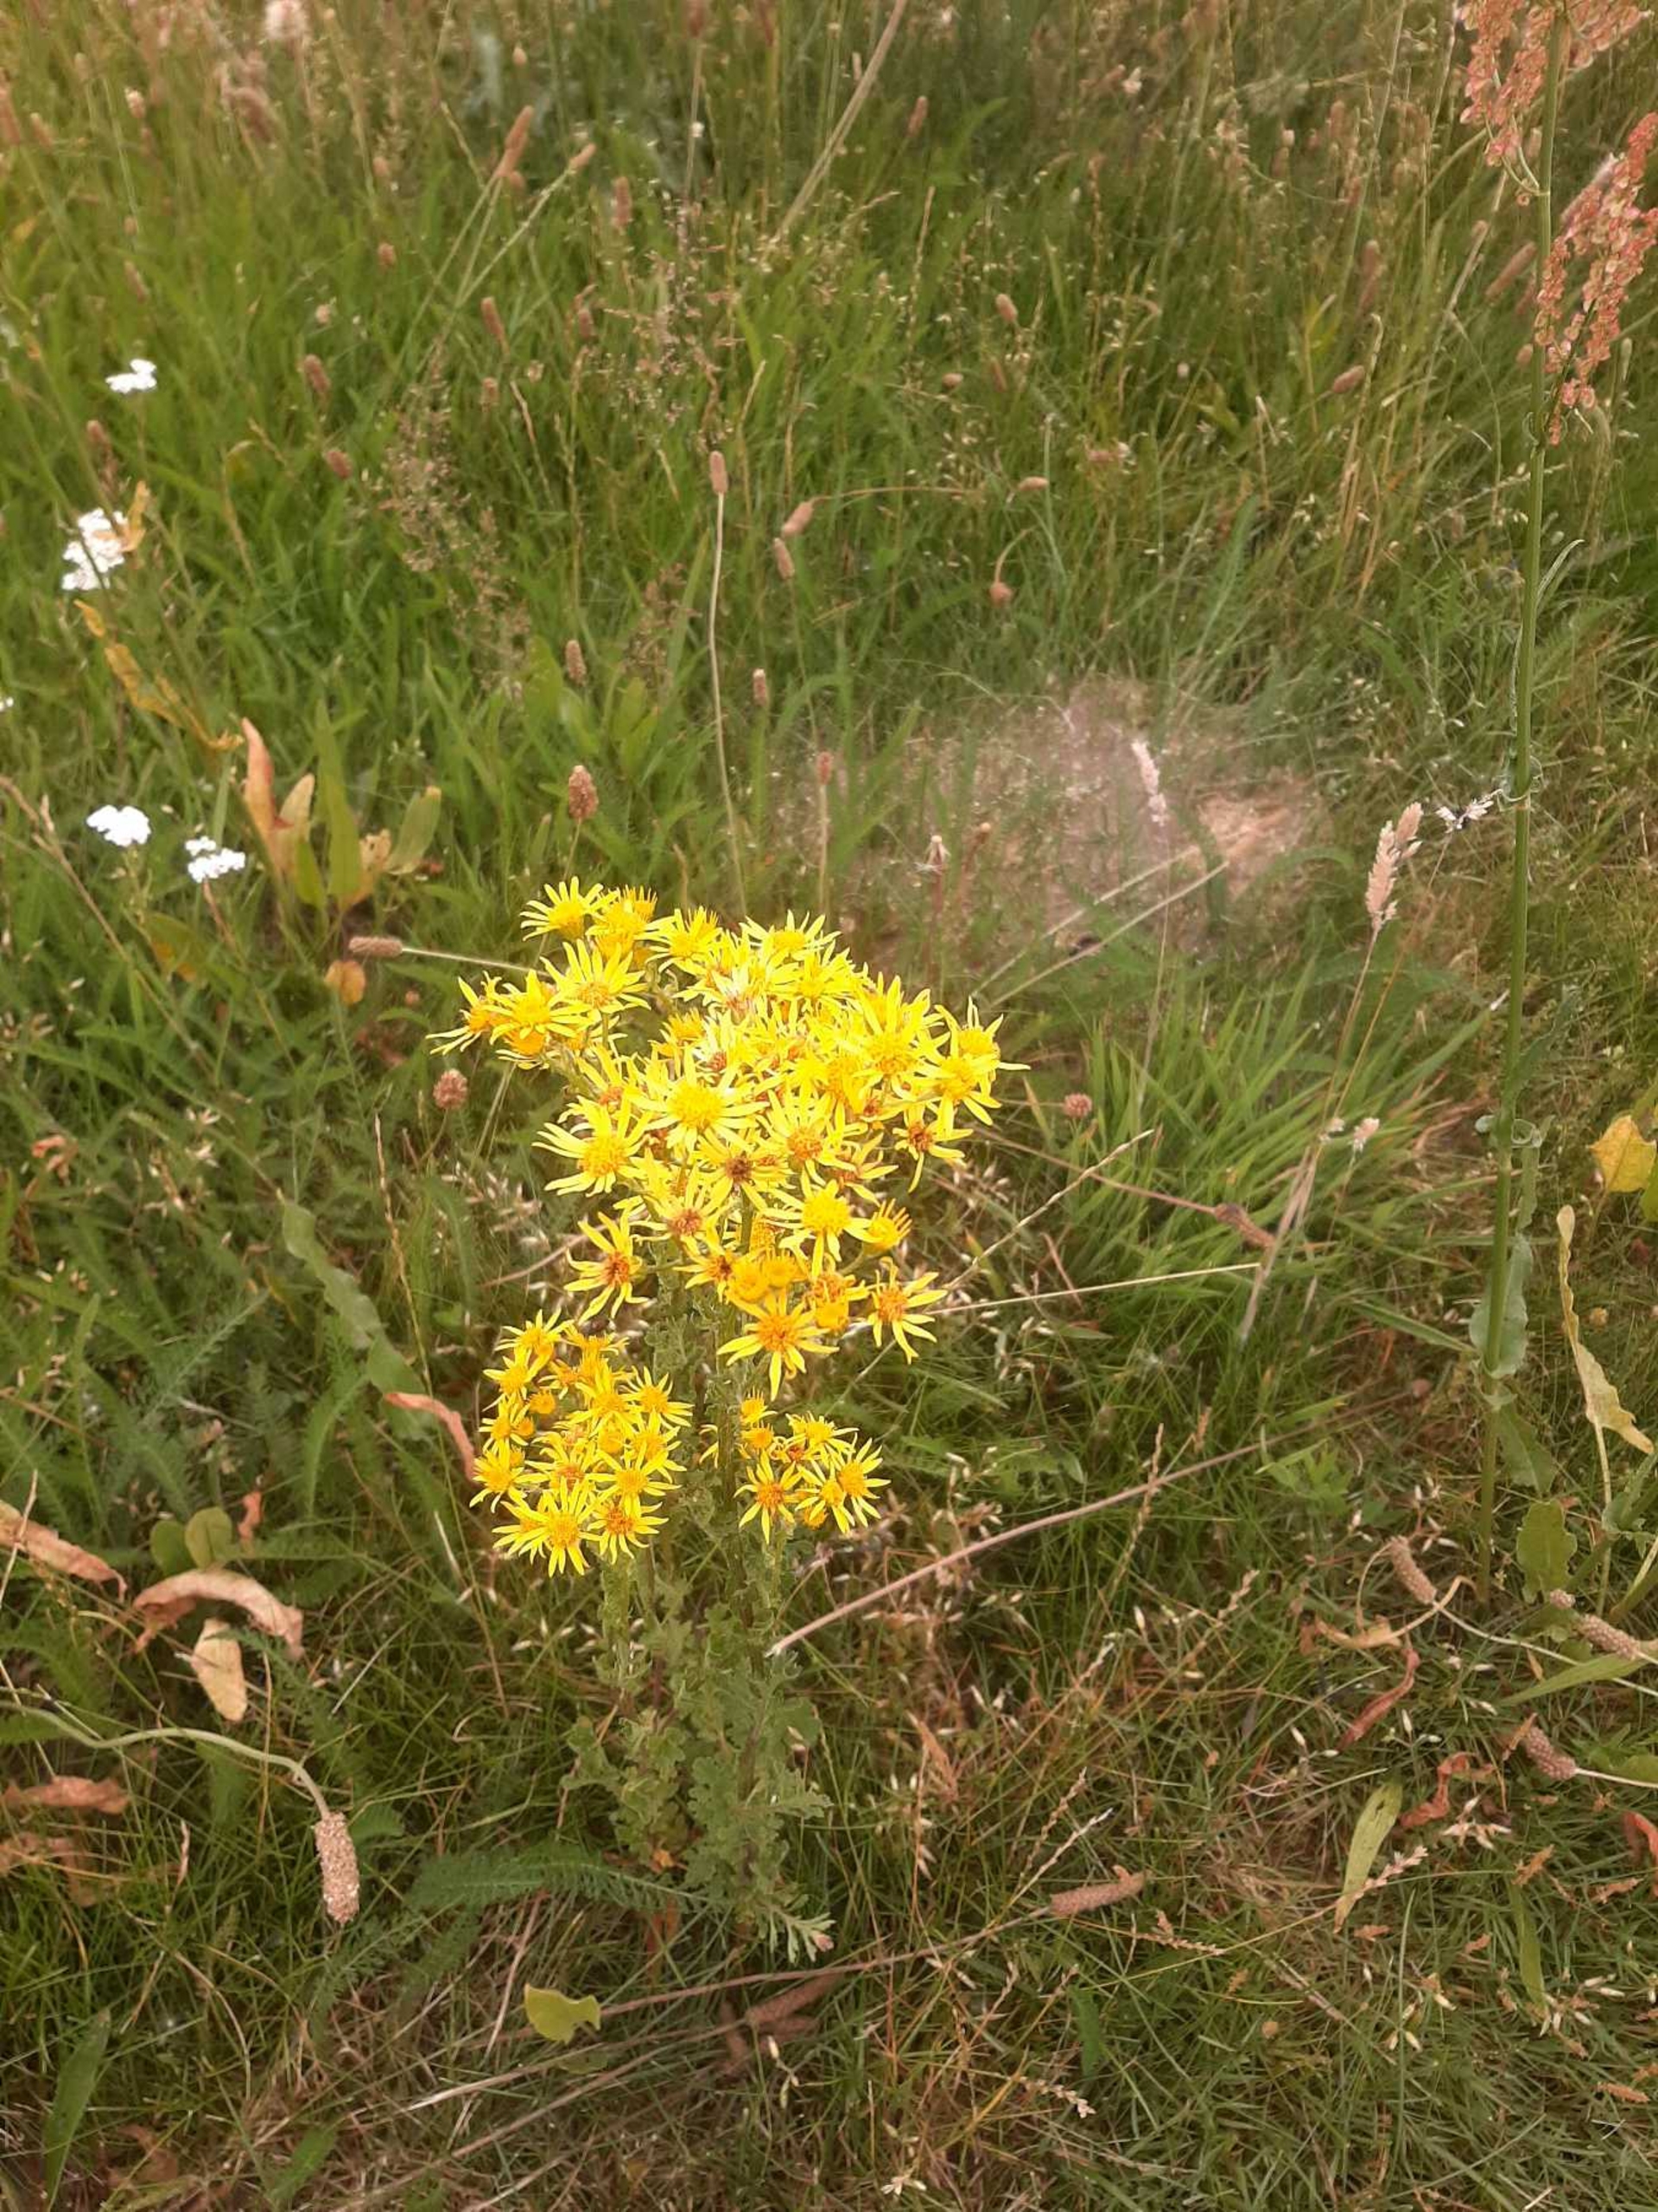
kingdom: Plantae
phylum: Tracheophyta
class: Magnoliopsida
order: Asterales
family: Asteraceae
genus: Jacobaea
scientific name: Jacobaea vulgaris
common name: Eng-brandbæger
